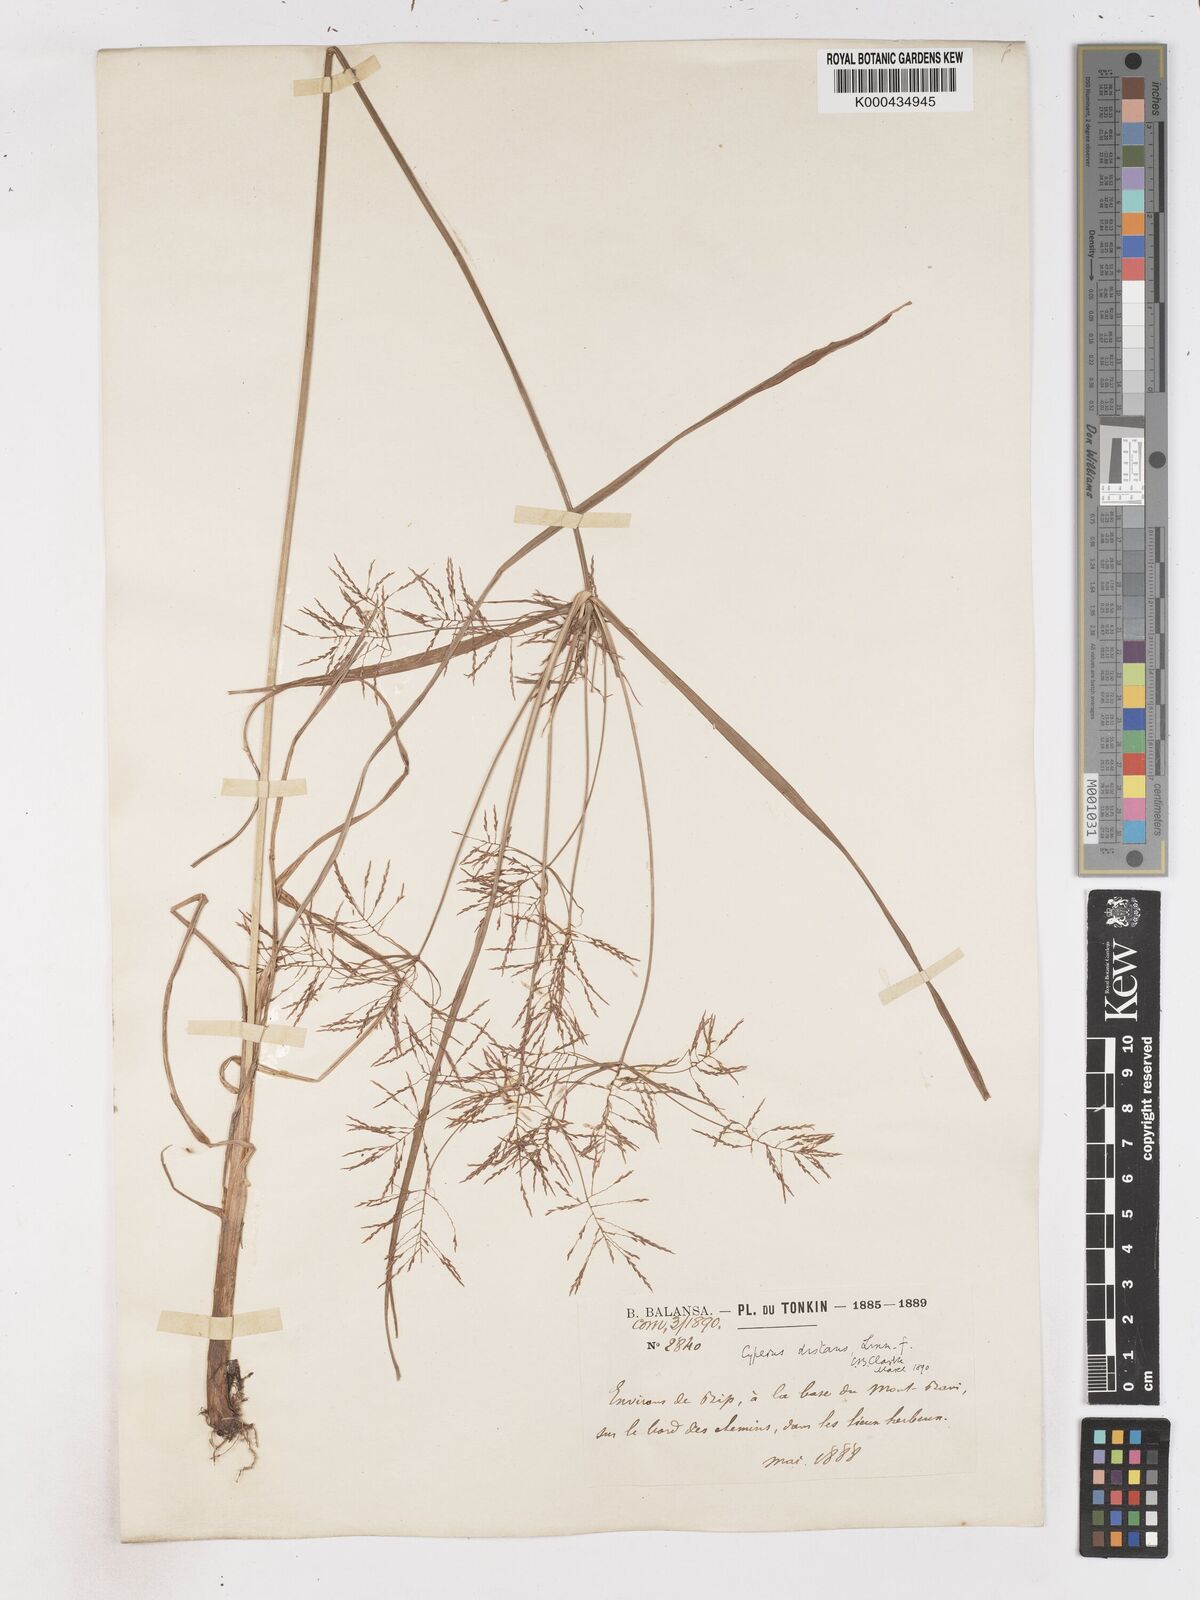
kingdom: Plantae
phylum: Tracheophyta
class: Liliopsida
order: Poales
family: Cyperaceae
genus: Cyperus
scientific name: Cyperus distans
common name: Slender cyperus
